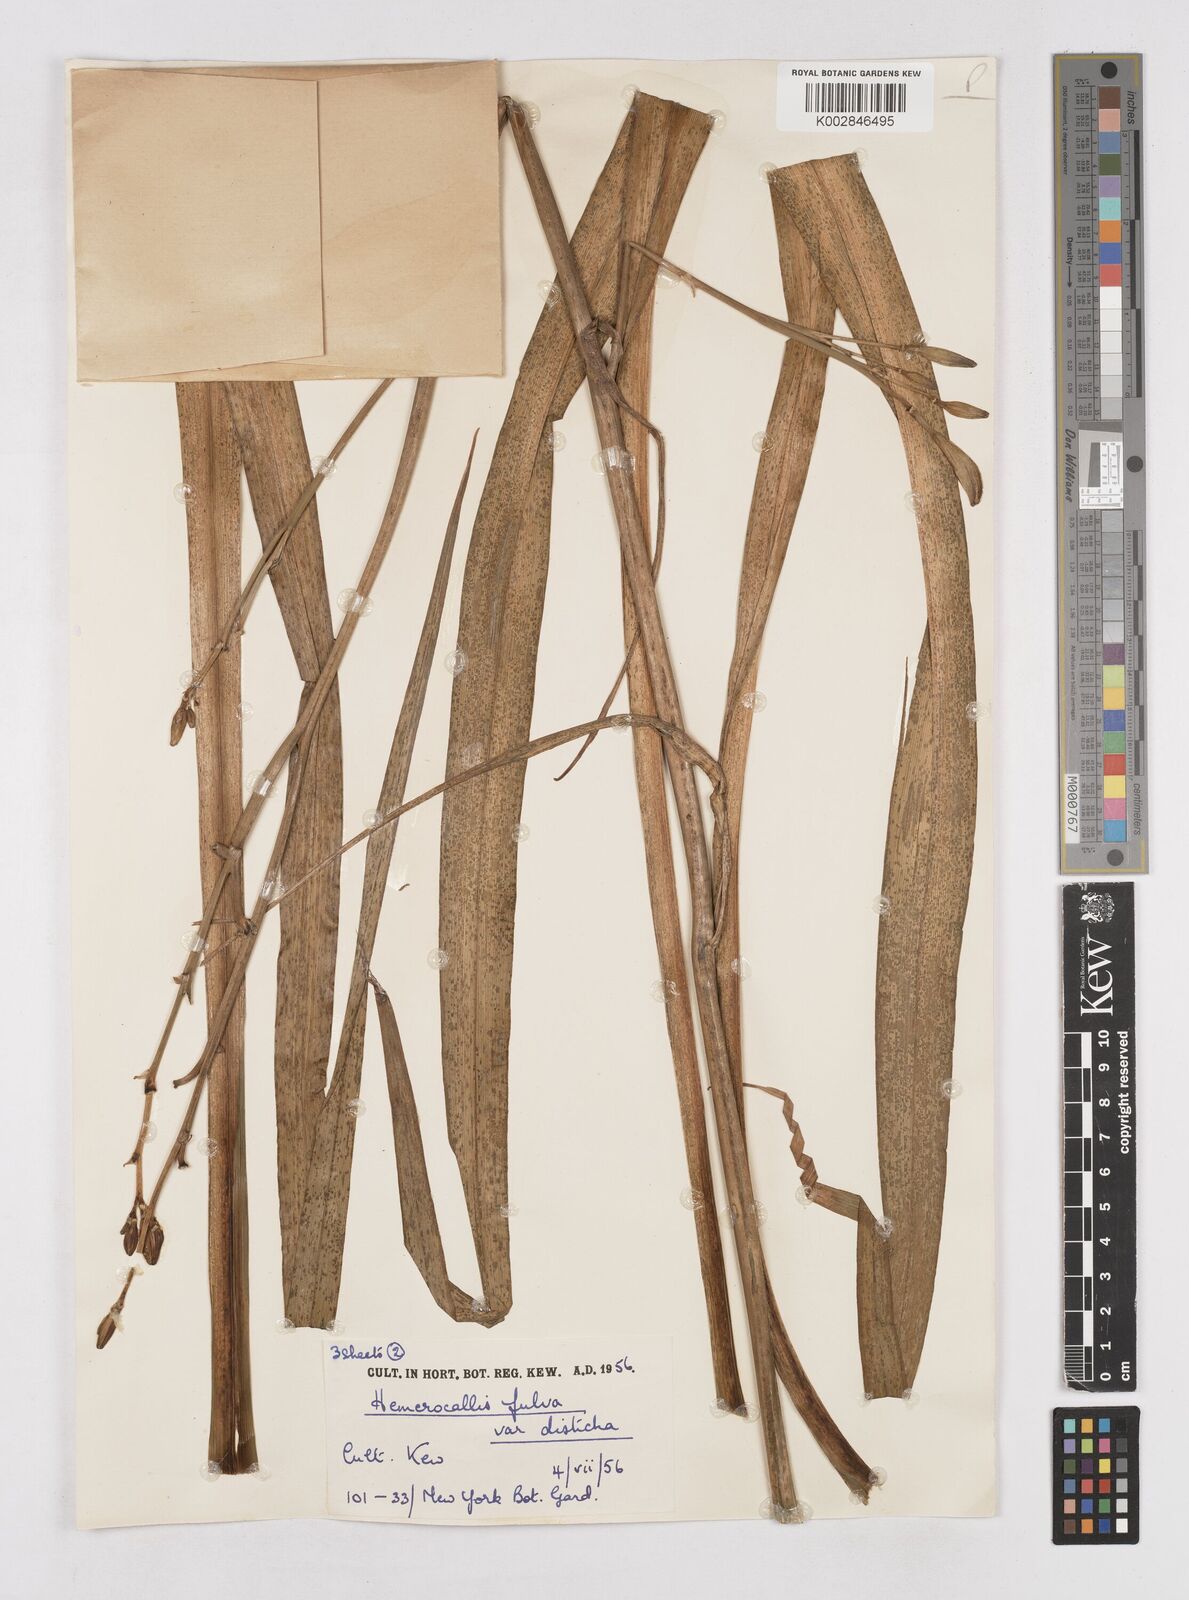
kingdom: Plantae
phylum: Tracheophyta
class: Liliopsida
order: Asparagales
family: Asphodelaceae
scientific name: Asphodelaceae
